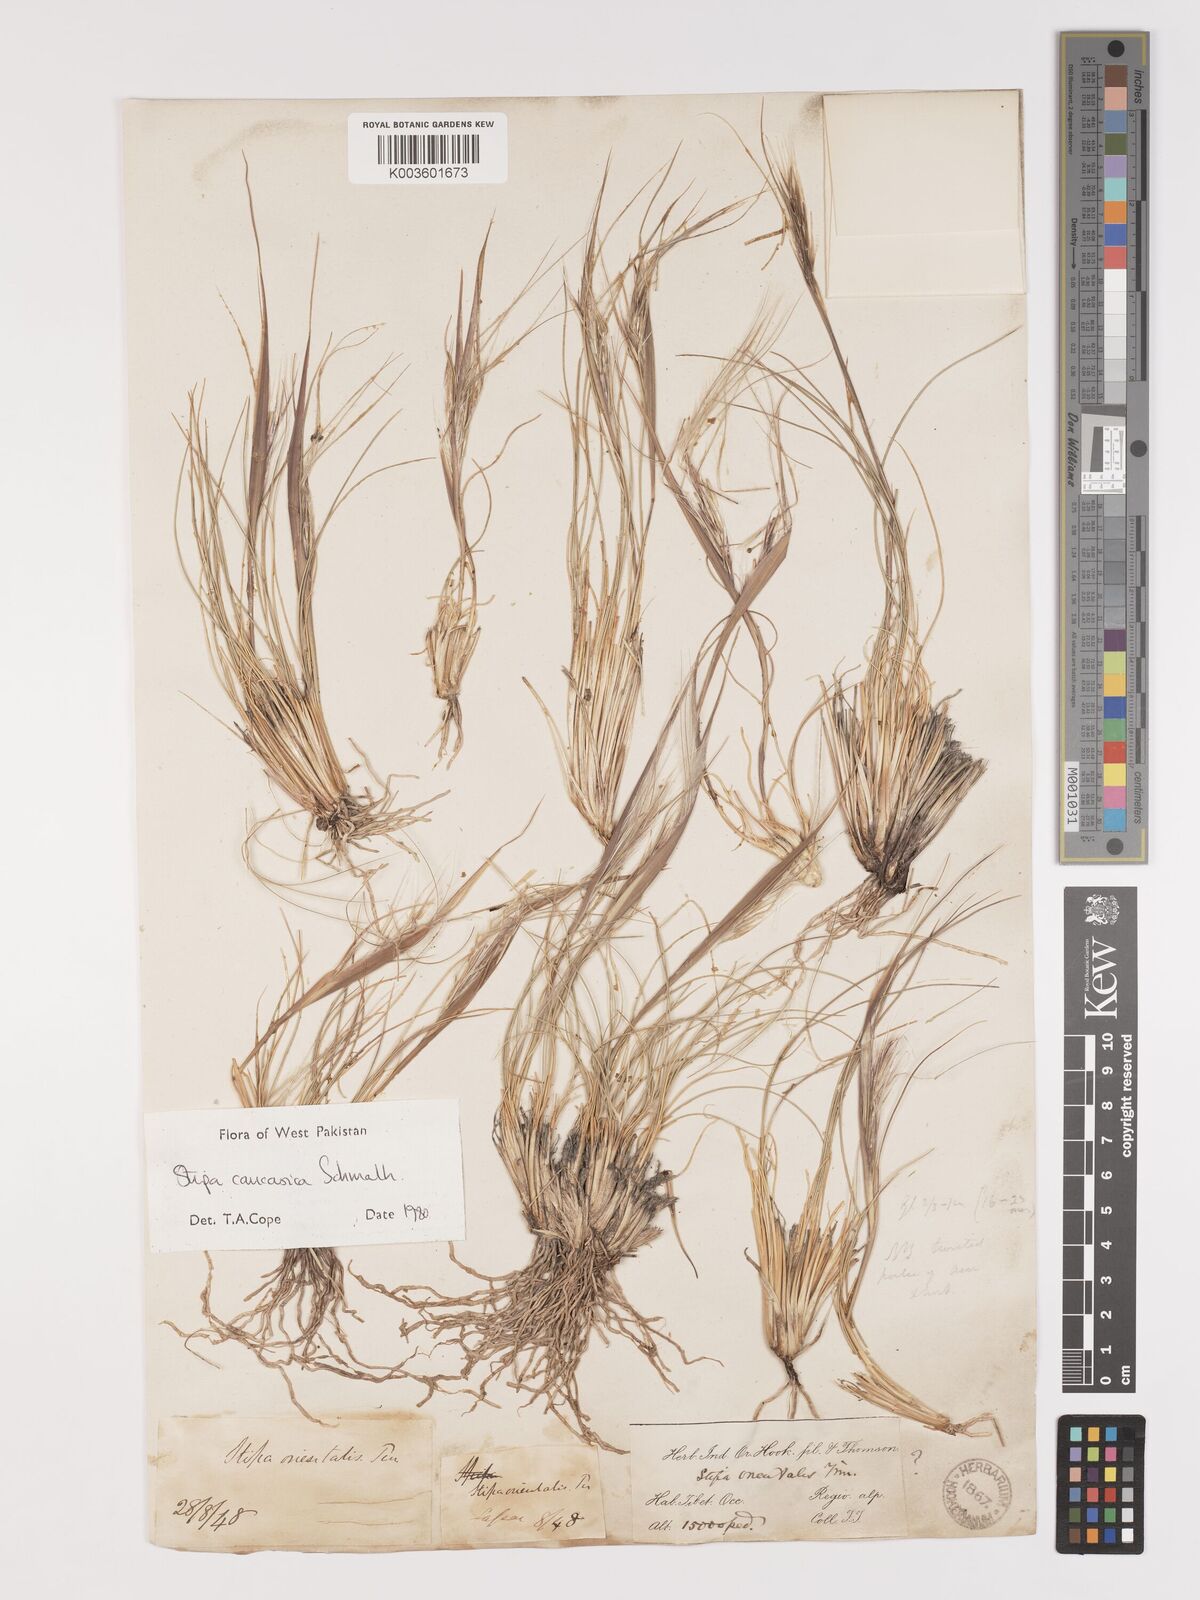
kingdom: Plantae
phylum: Tracheophyta
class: Liliopsida
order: Poales
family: Poaceae
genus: Stipa
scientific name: Stipa caucasica
